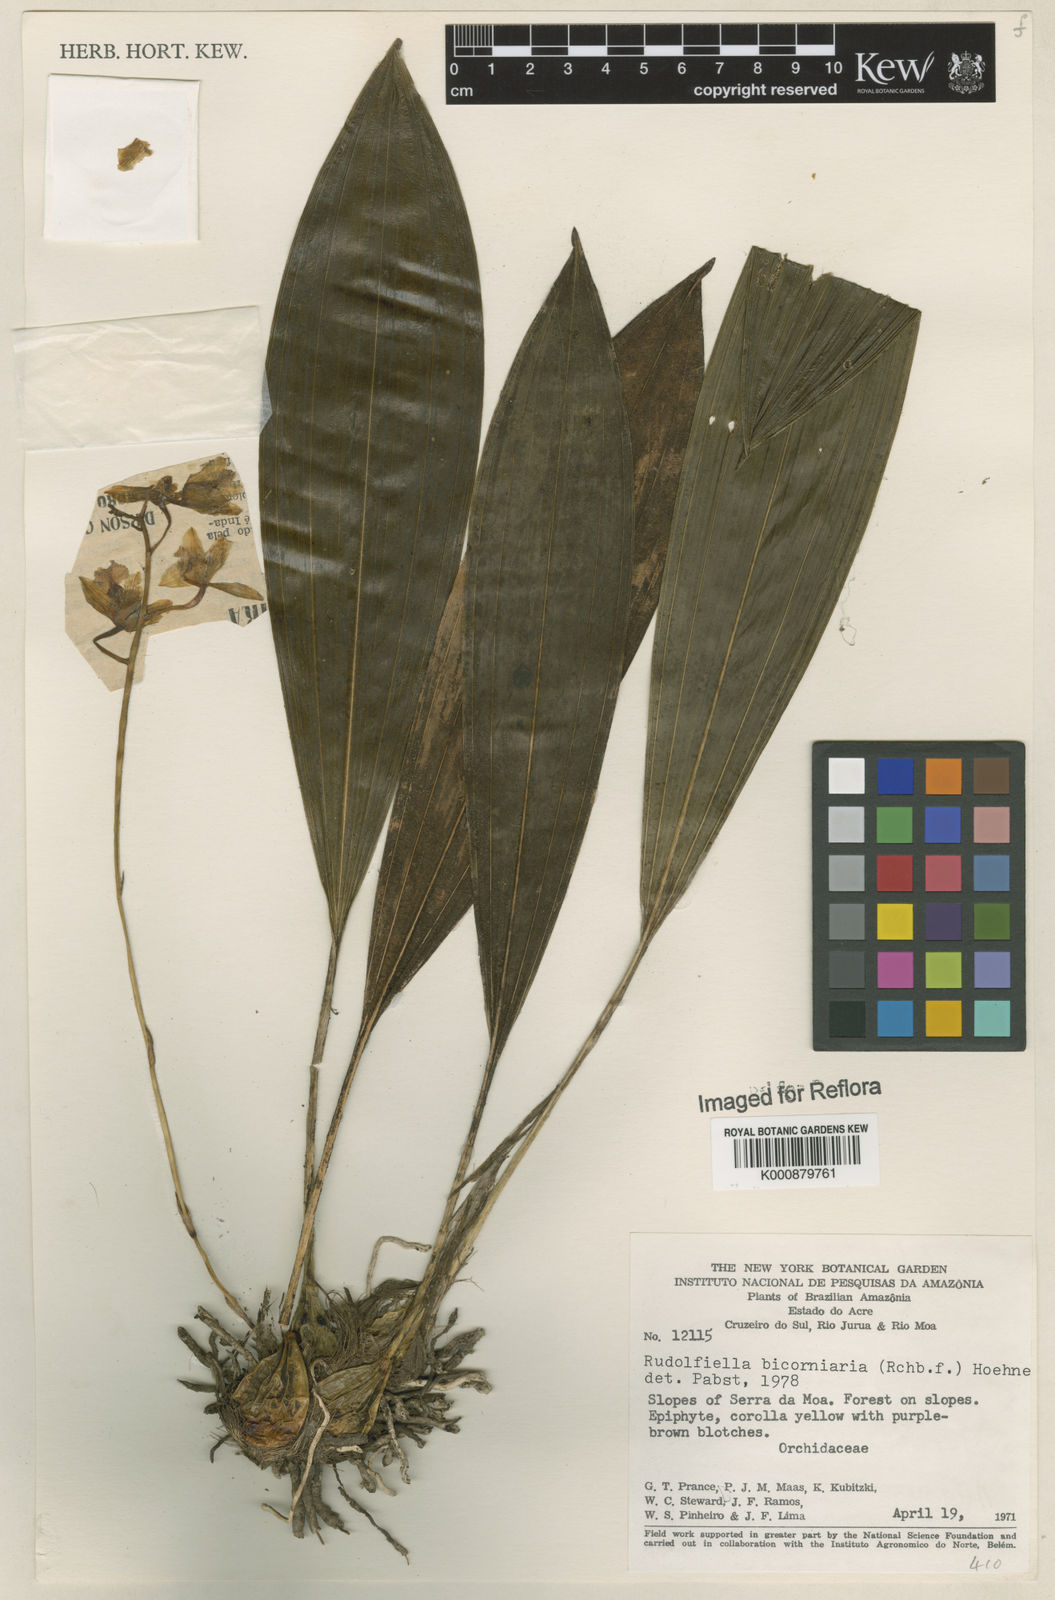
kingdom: Plantae
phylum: Tracheophyta
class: Liliopsida
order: Asparagales
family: Orchidaceae
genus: Rudolfiella
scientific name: Rudolfiella bicornaria
